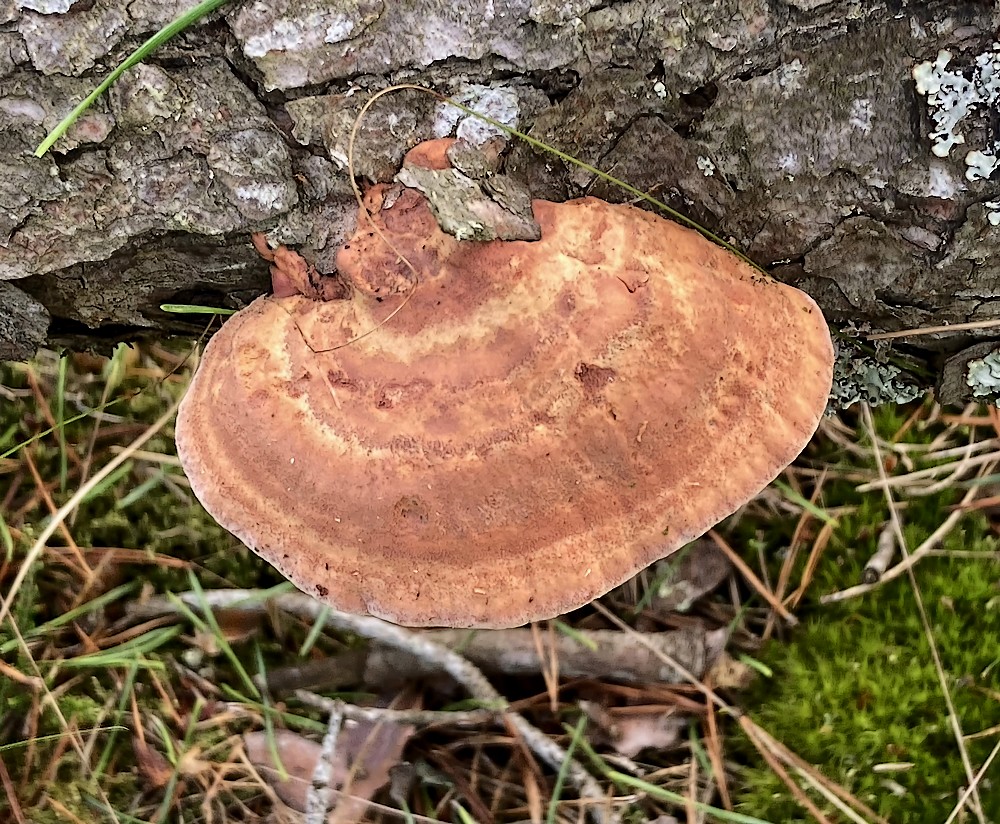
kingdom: Fungi
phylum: Basidiomycota
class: Agaricomycetes
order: Polyporales
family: Phanerochaetaceae
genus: Hapalopilus
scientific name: Hapalopilus rutilans
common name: rødlig okkerporesvamp
